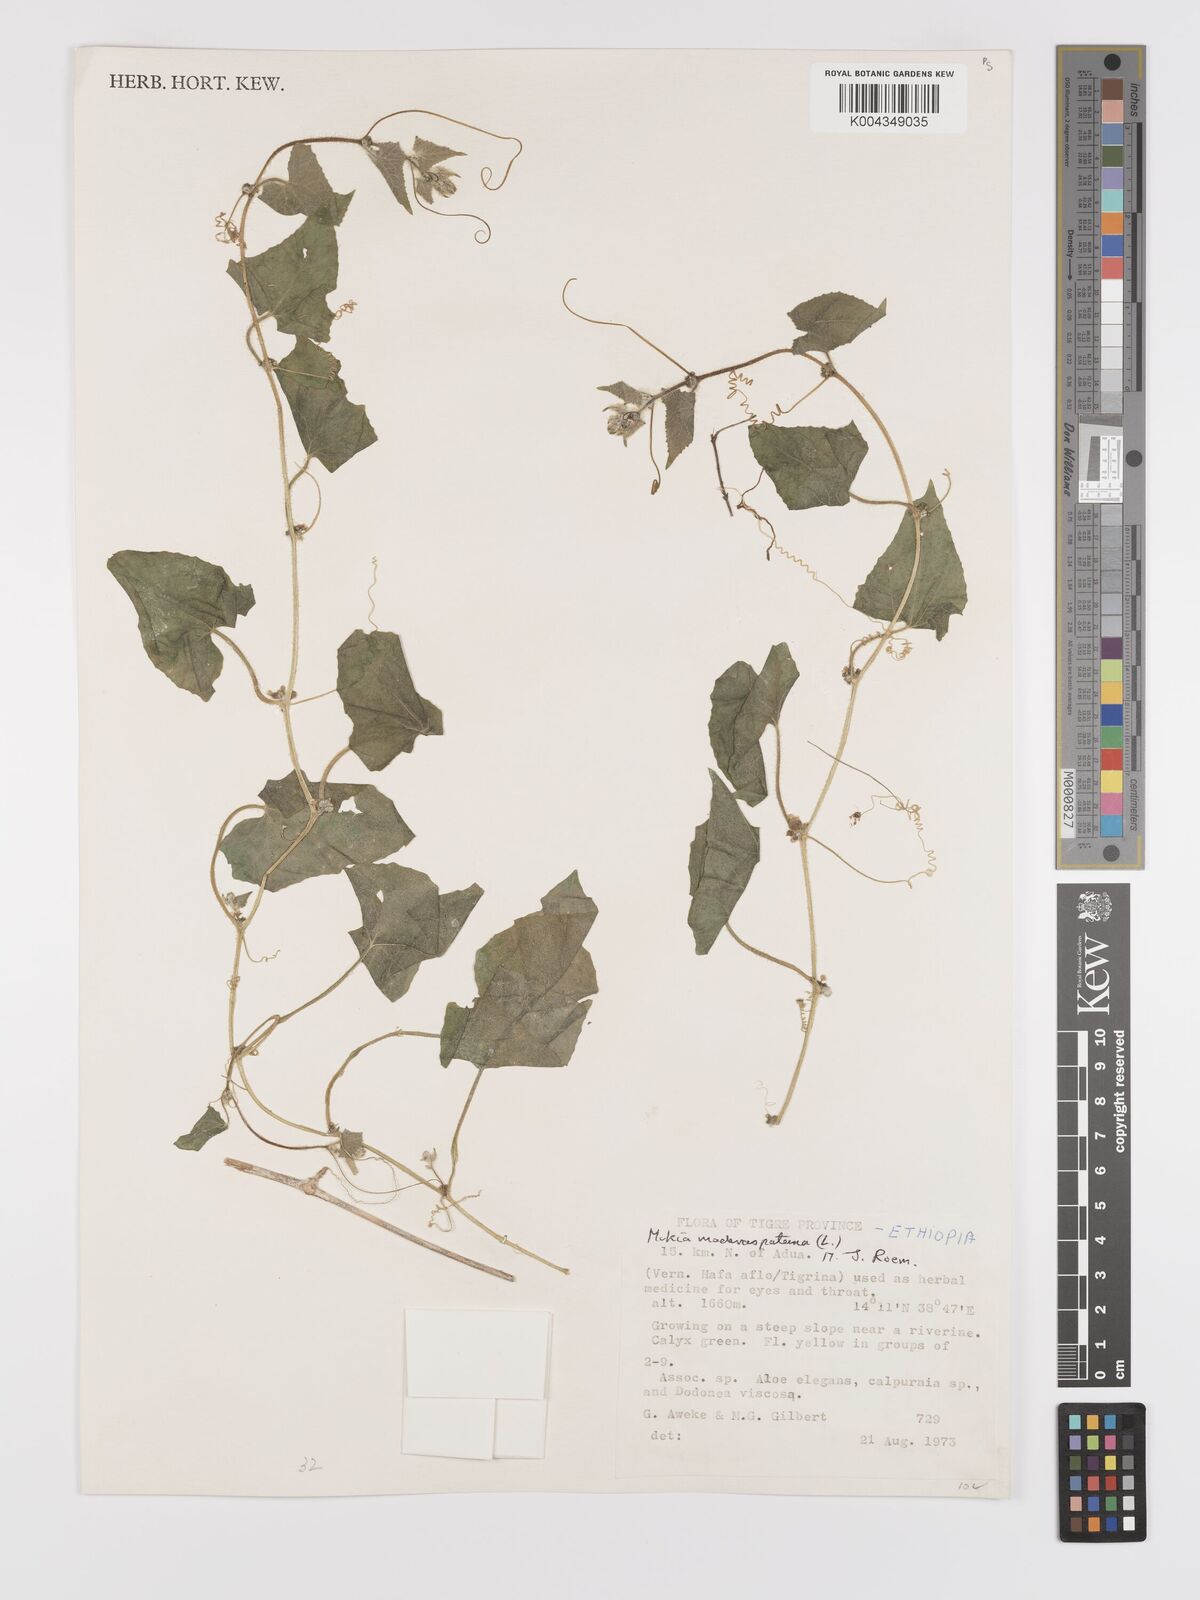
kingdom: Plantae
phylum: Tracheophyta
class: Magnoliopsida
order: Cucurbitales
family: Cucurbitaceae
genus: Cucumis
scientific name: Cucumis maderaspatanus
